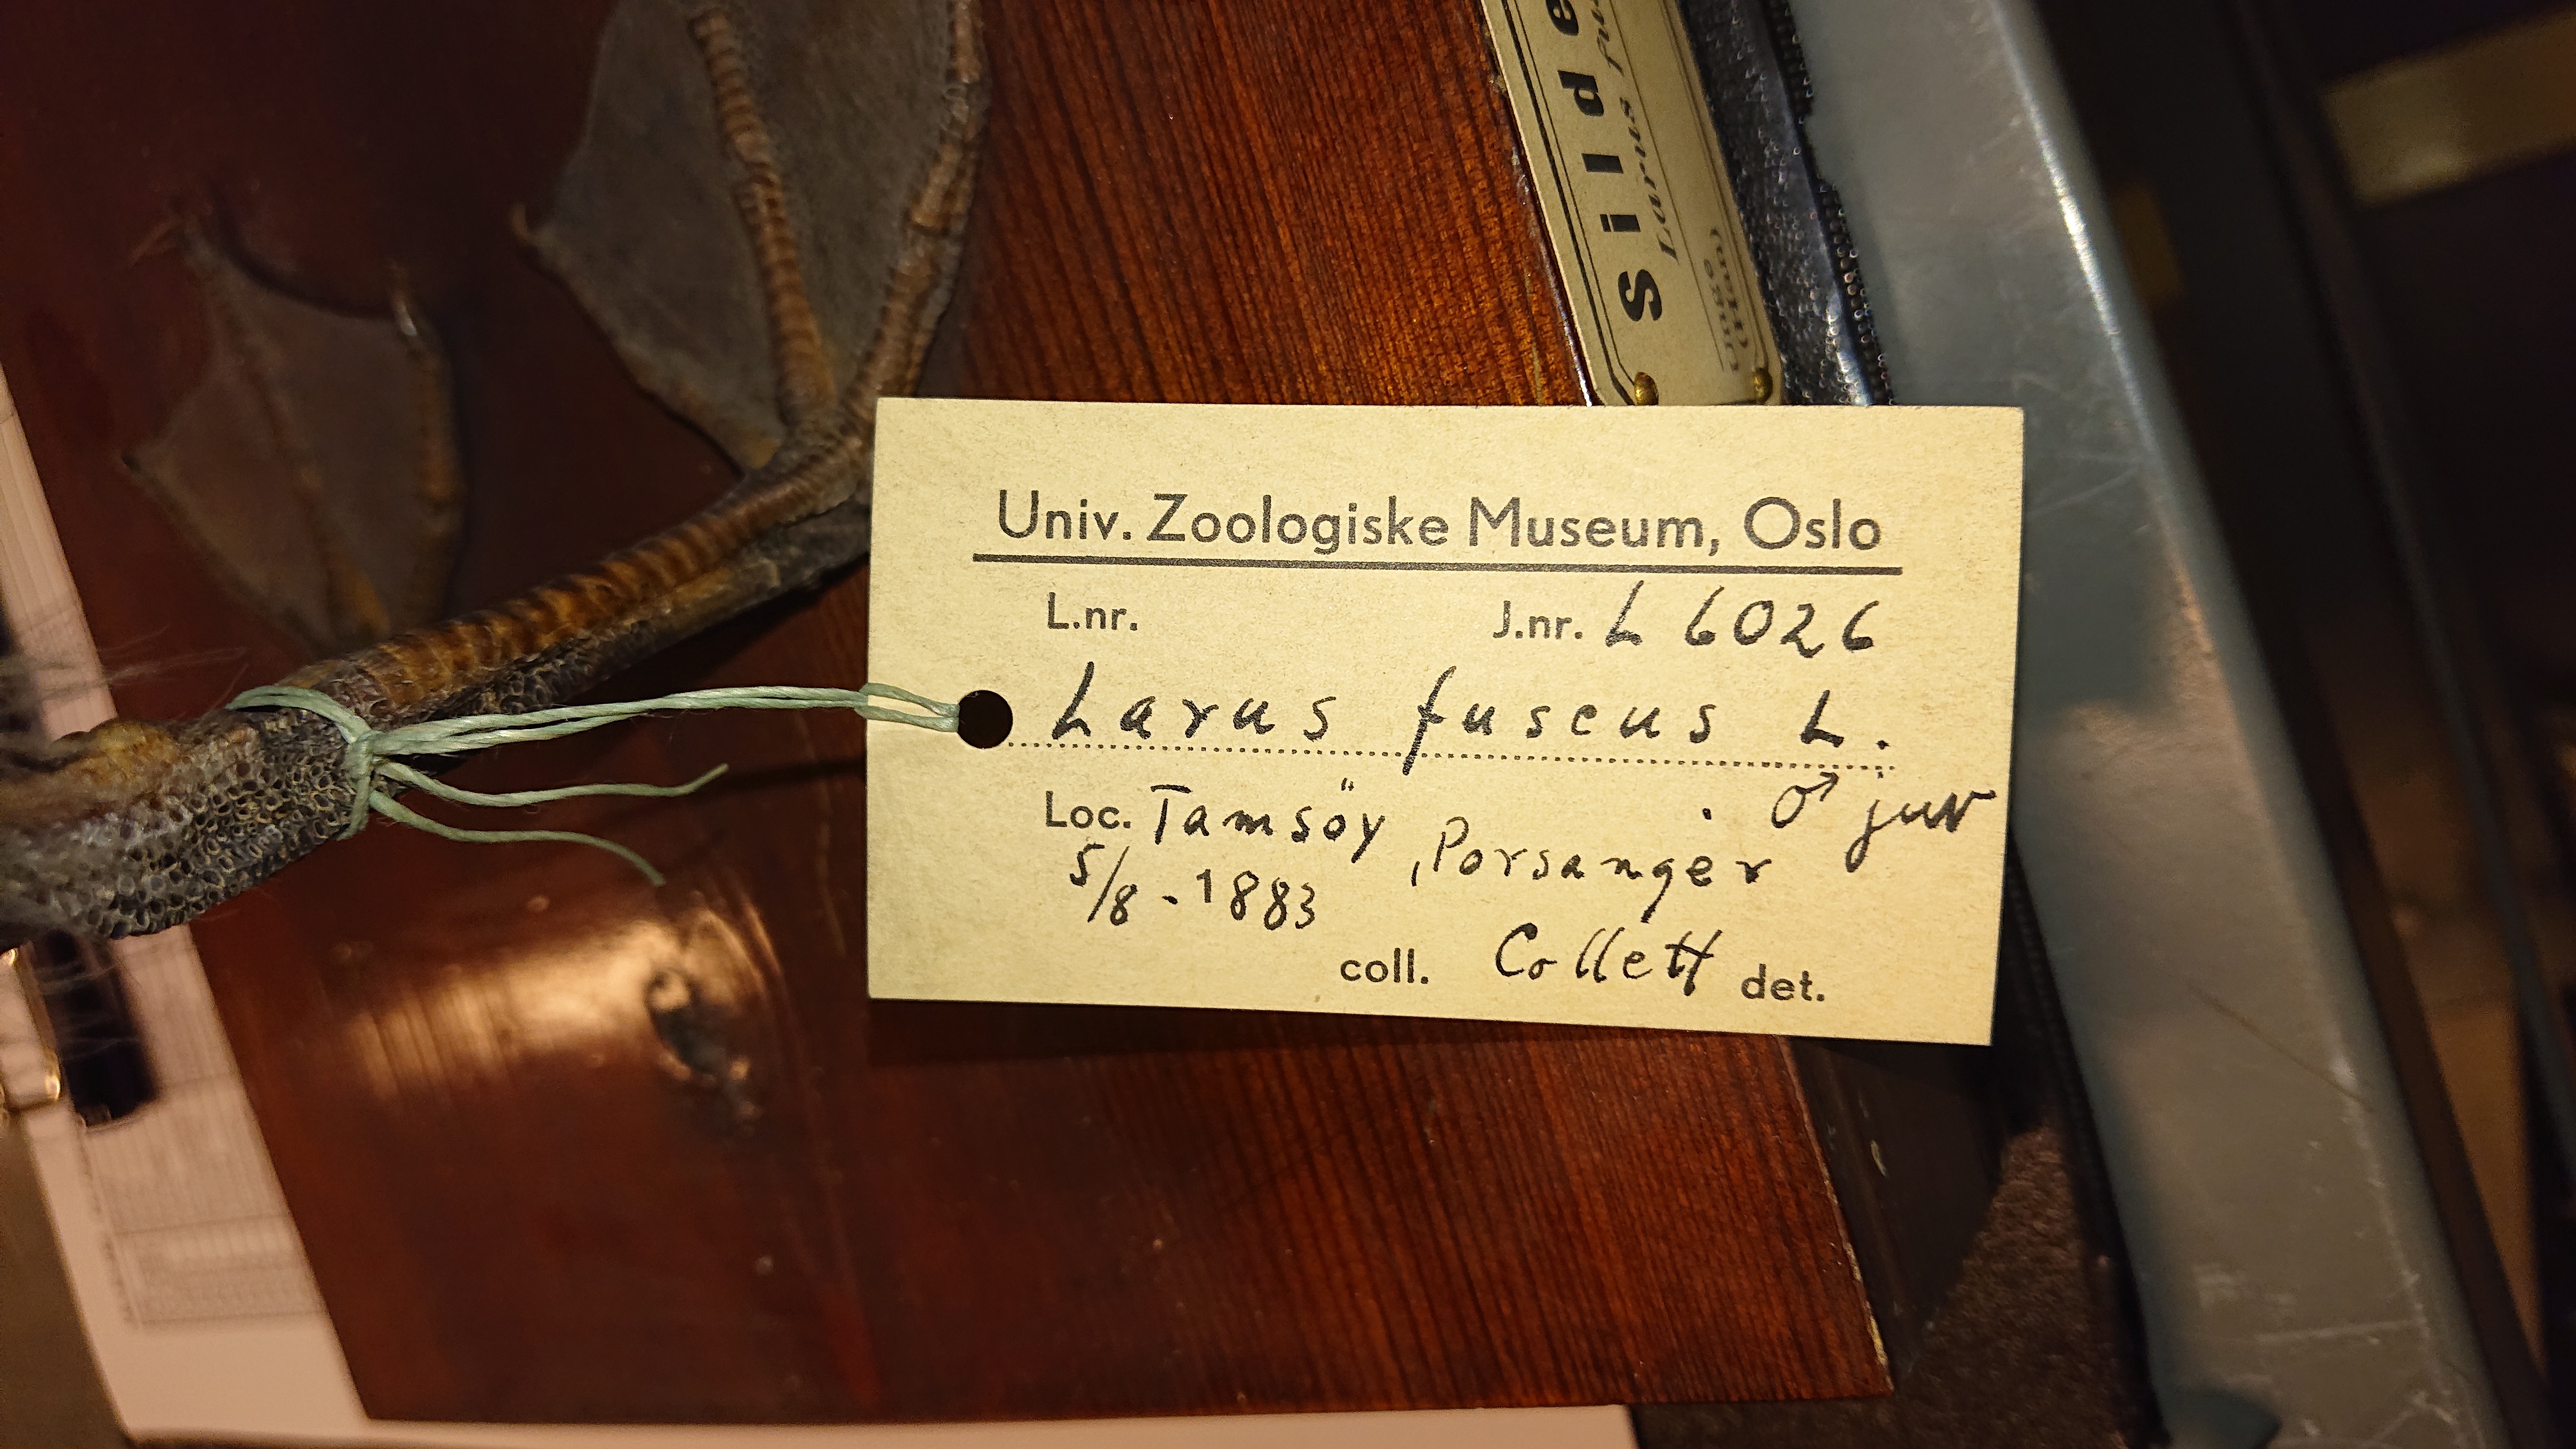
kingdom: Animalia
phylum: Chordata
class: Aves
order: Charadriiformes
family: Laridae
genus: Larus
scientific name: Larus fuscus
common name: Lesser black-backed gull
